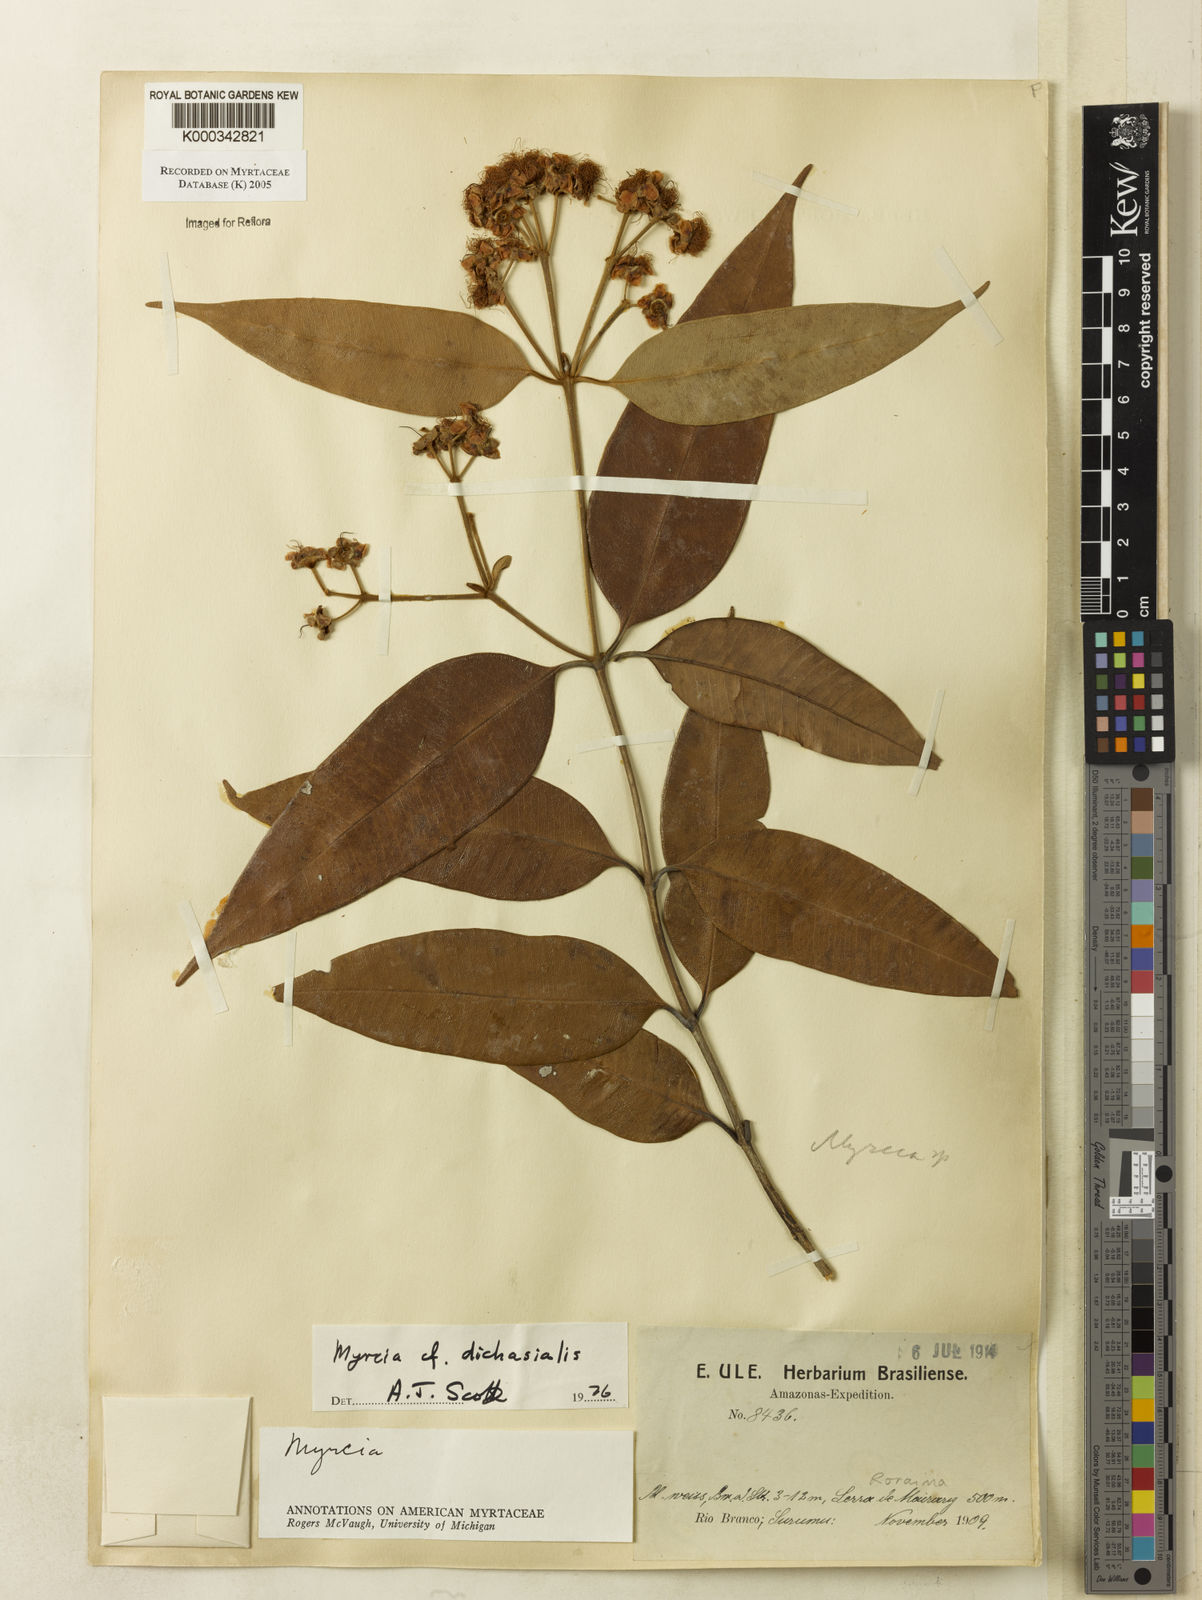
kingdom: Plantae
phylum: Tracheophyta
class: Magnoliopsida
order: Myrtales
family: Myrtaceae
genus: Myrcia
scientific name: Myrcia dichasialis
